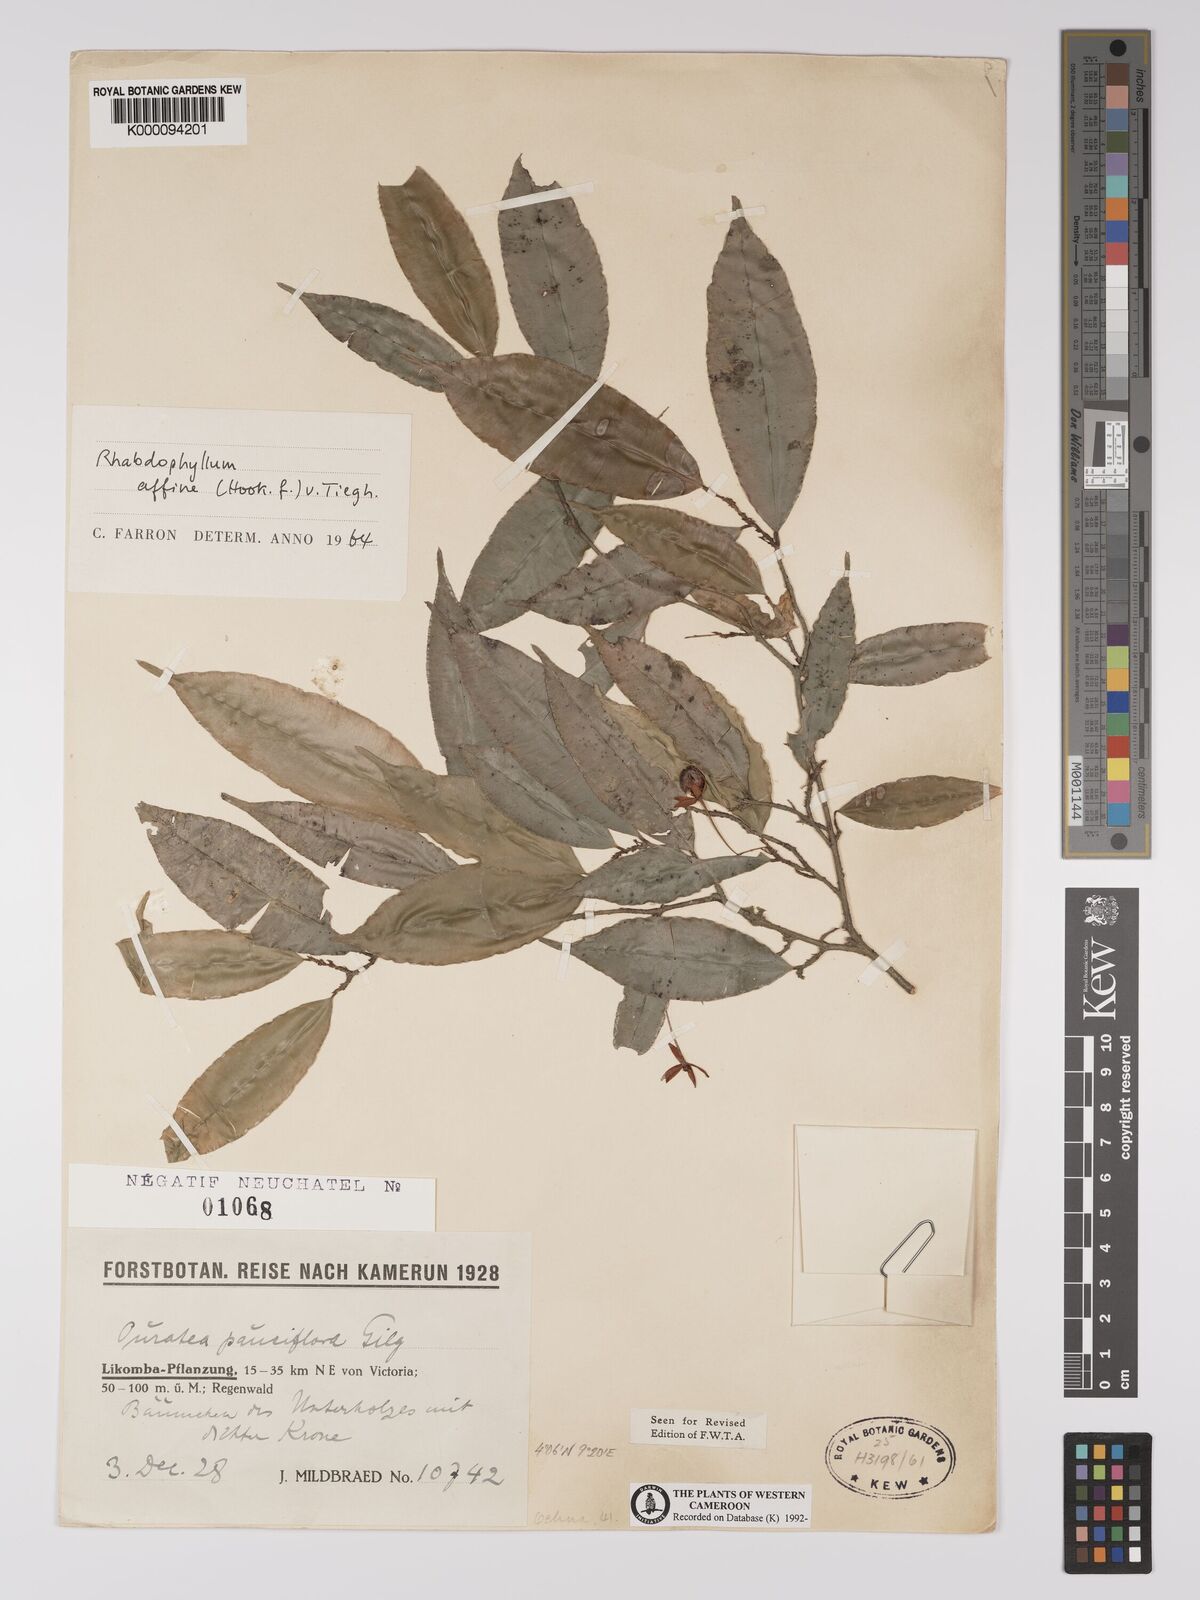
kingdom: Plantae
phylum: Tracheophyta
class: Magnoliopsida
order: Malpighiales
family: Ochnaceae
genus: Rhabdophyllum
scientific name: Rhabdophyllum affine
